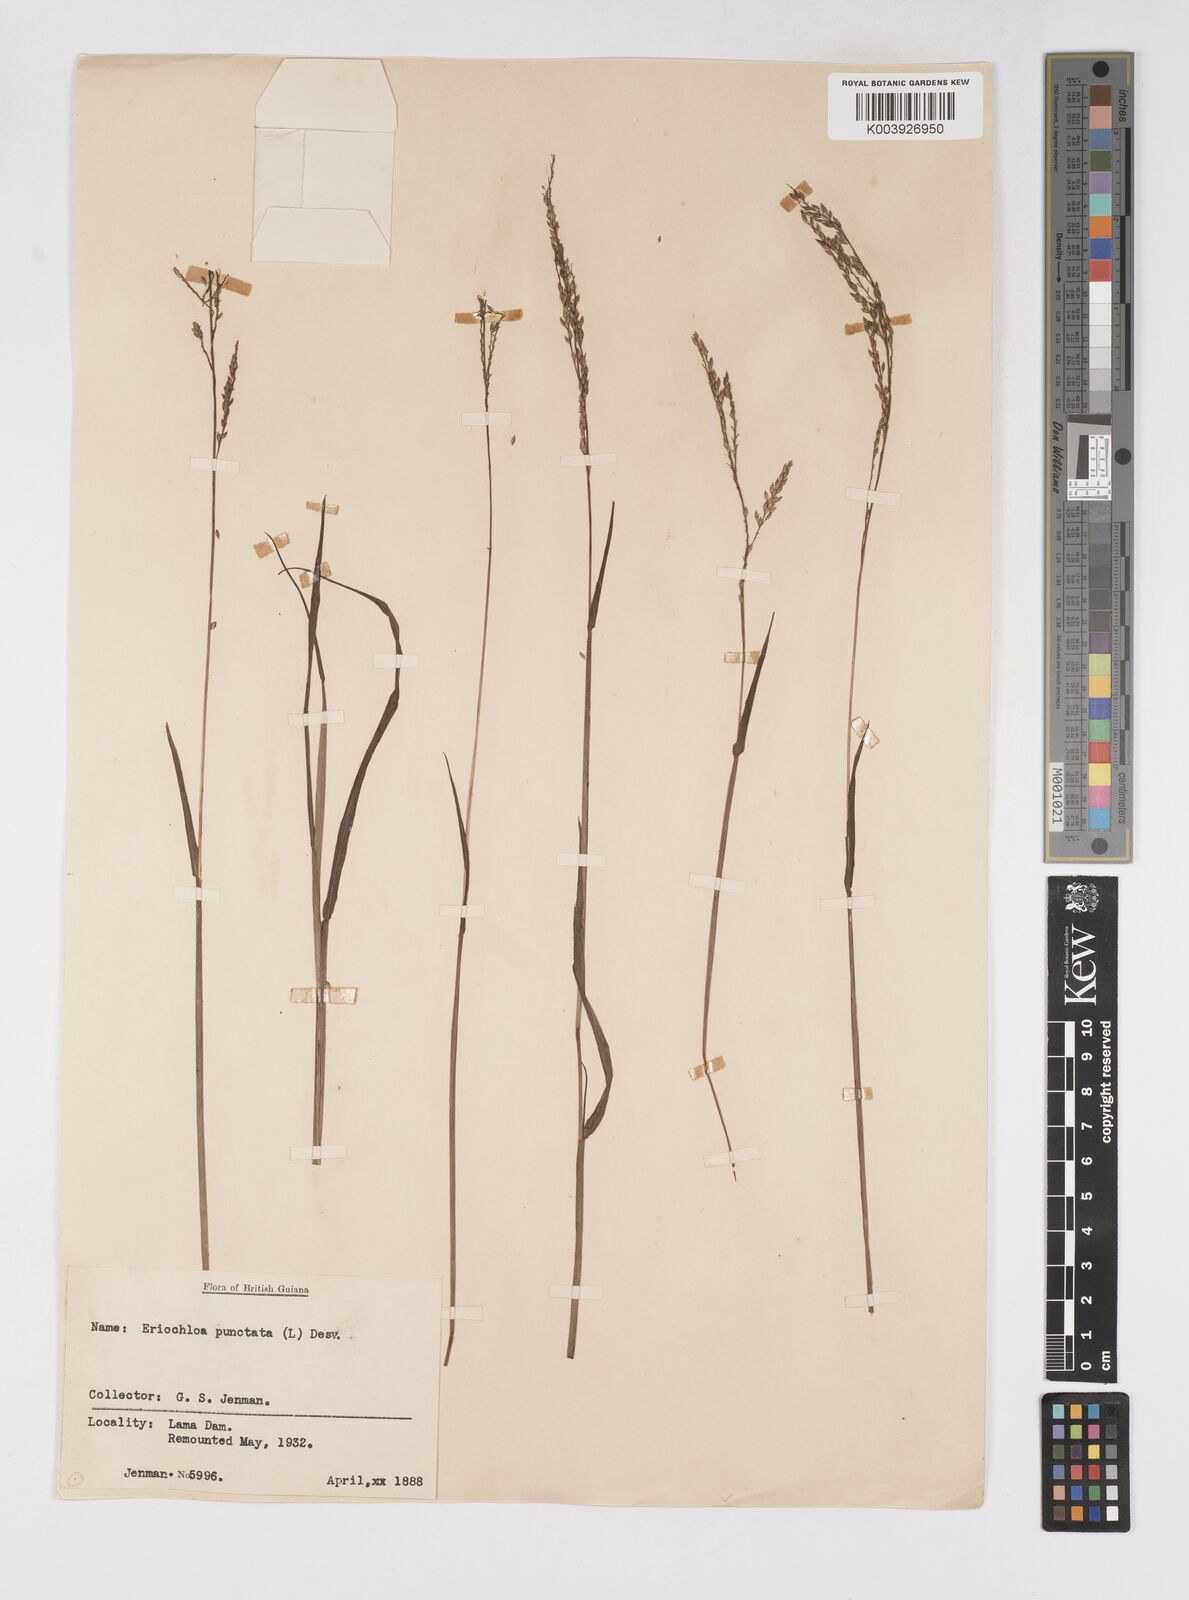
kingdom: Plantae
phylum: Tracheophyta
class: Liliopsida
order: Poales
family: Poaceae
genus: Eriochloa
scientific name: Eriochloa punctata
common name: Louisiana cupgrass
